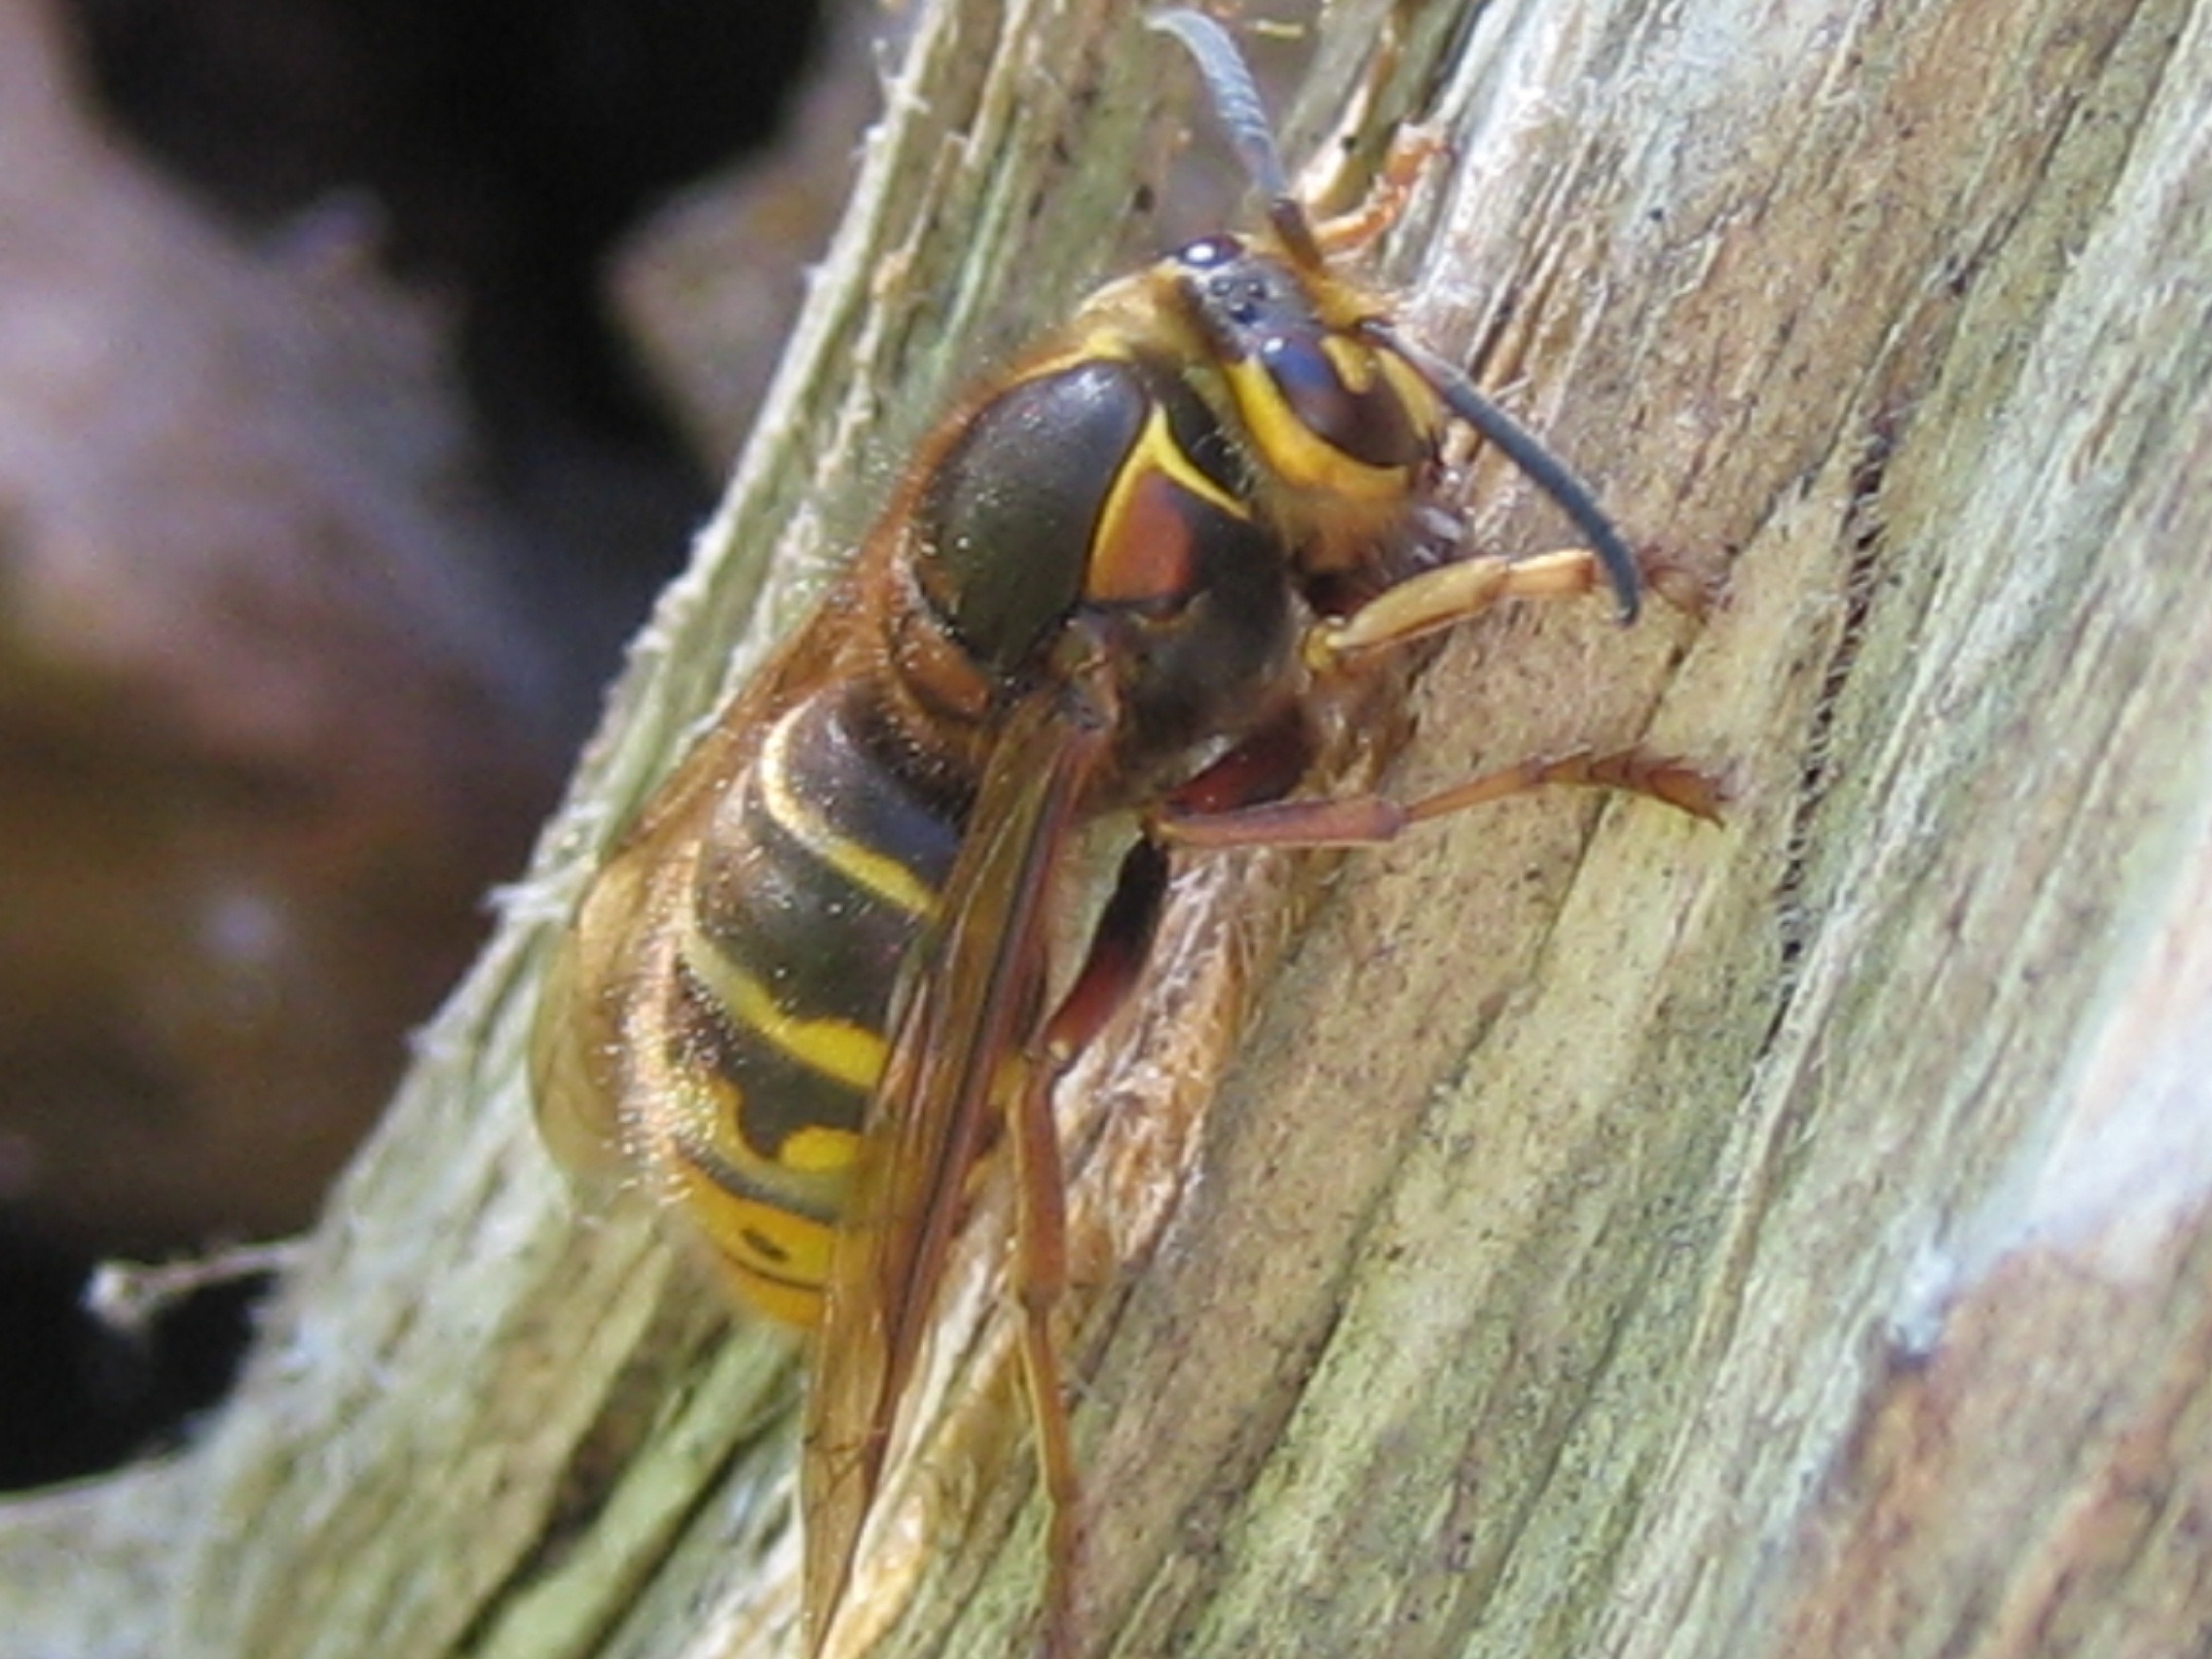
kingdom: Animalia
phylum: Arthropoda
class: Insecta
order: Hymenoptera
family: Vespidae
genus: Dolichovespula
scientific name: Dolichovespula media
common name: Mellemstor gedehams
